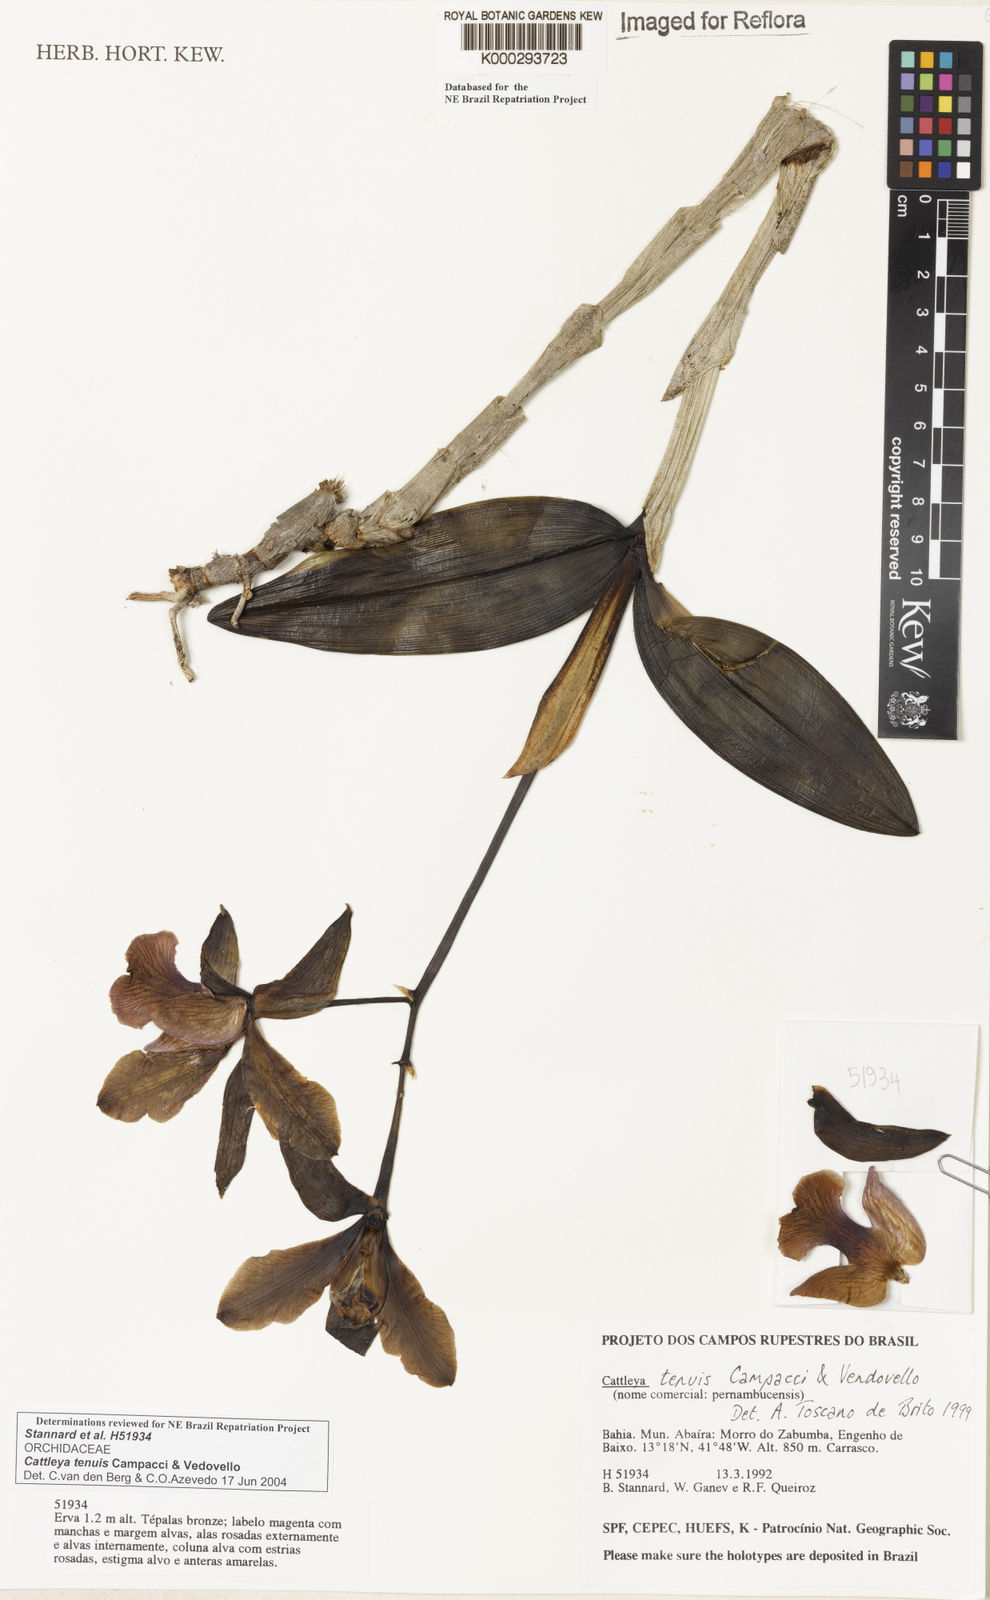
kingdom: Plantae
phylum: Tracheophyta
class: Liliopsida
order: Asparagales
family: Orchidaceae
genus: Cattleya
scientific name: Cattleya tenuis
